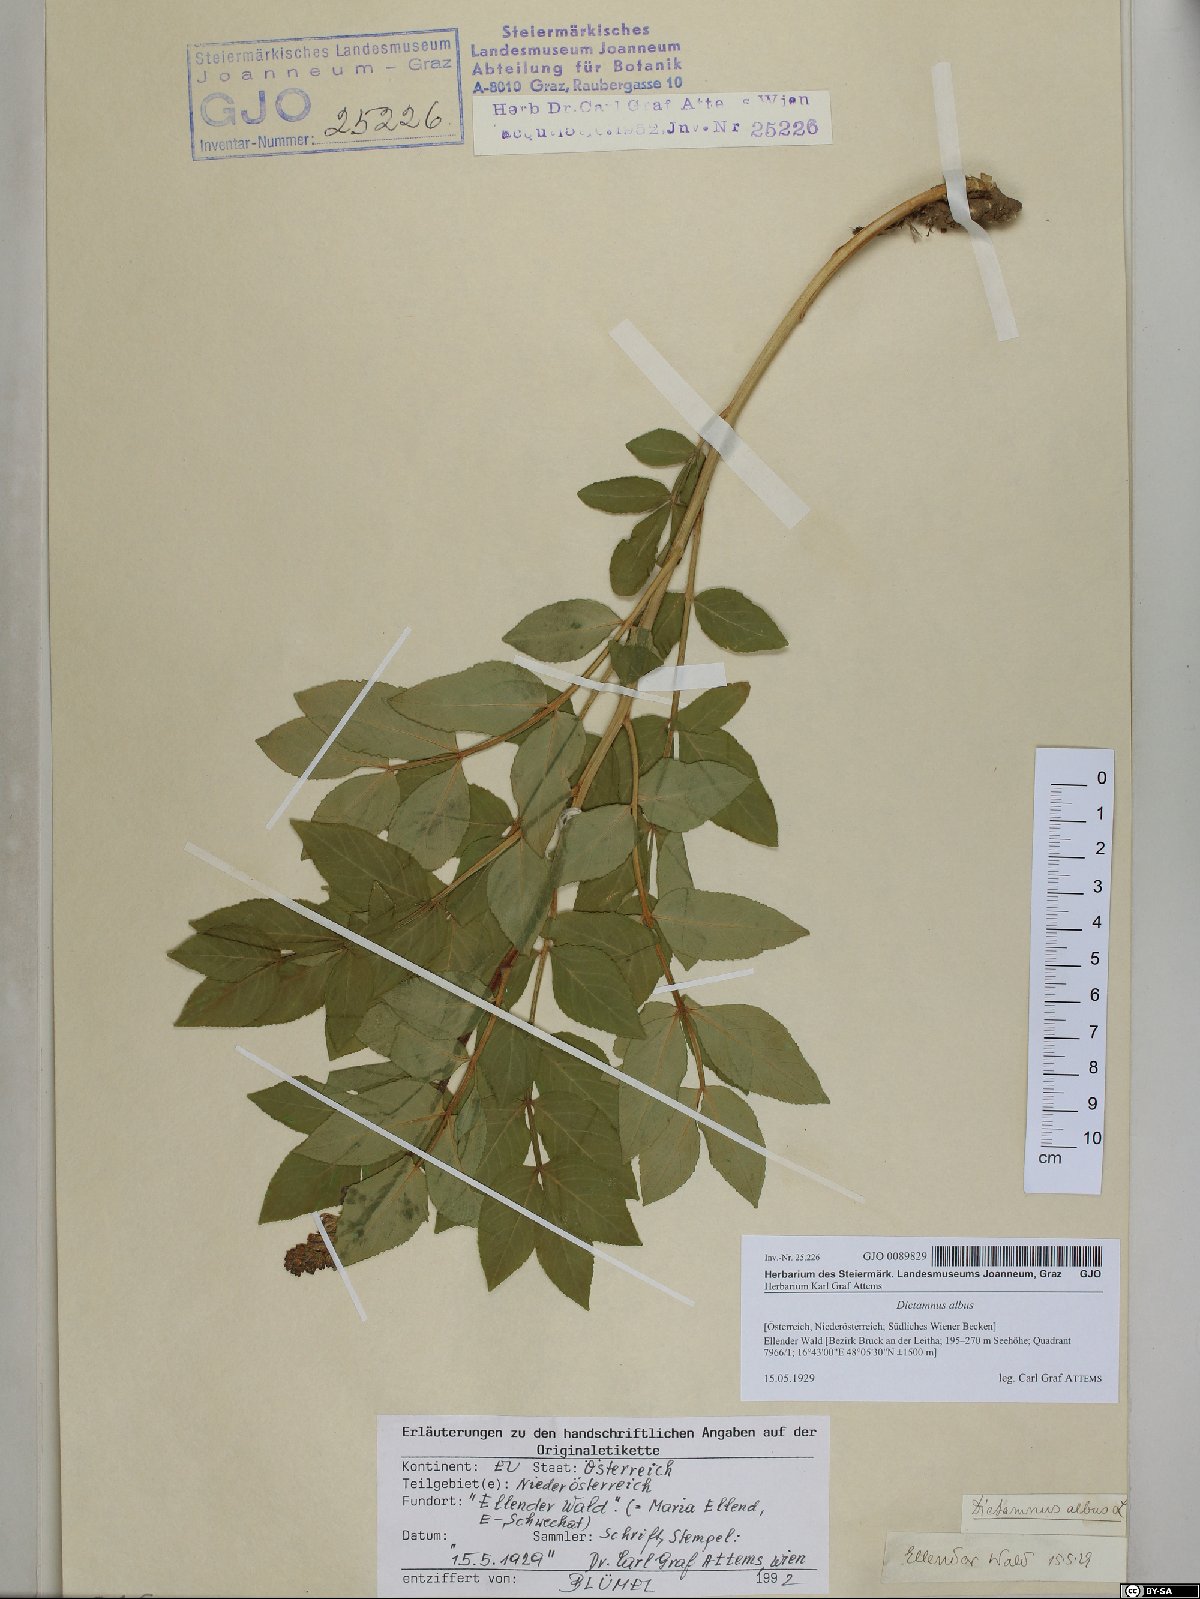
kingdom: Plantae
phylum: Tracheophyta
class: Magnoliopsida
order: Sapindales
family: Rutaceae
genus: Dictamnus
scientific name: Dictamnus albus
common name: Gasplant
